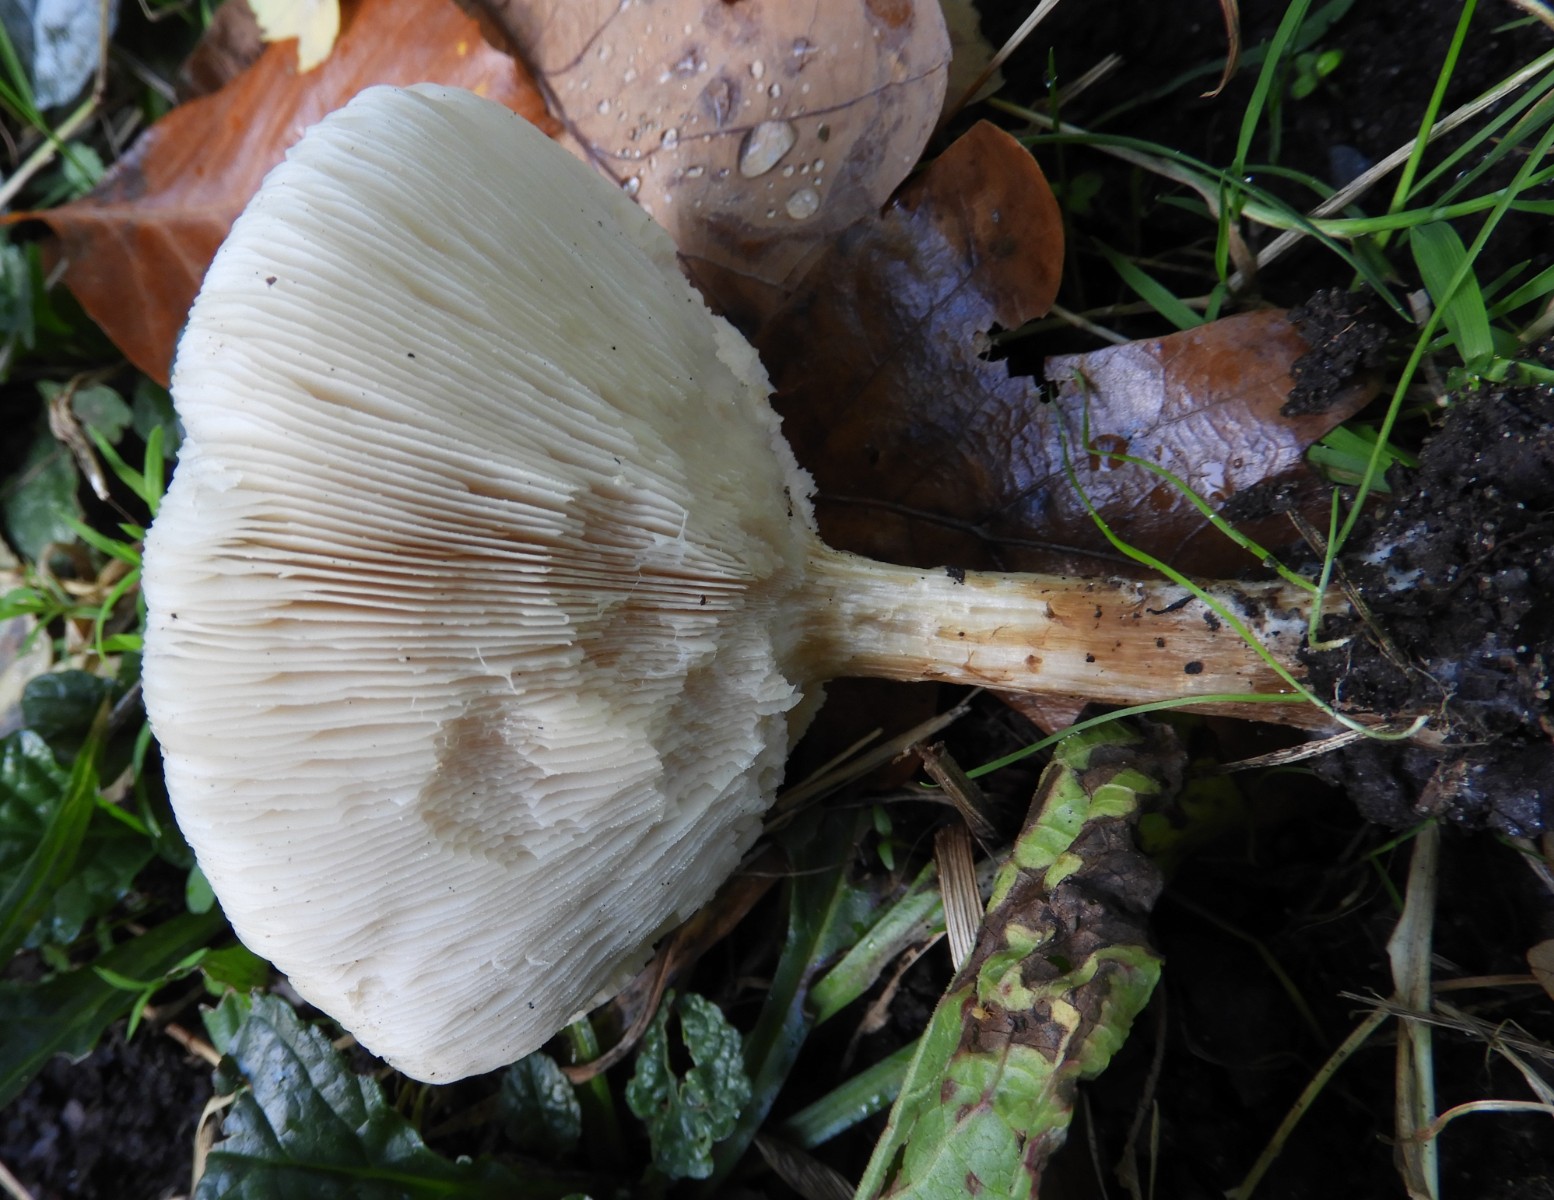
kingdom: Fungi
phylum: Basidiomycota
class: Agaricomycetes
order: Agaricales
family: Tricholomataceae
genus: Melanoleuca
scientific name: Melanoleuca grammopodia
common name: stribestokket munkehat
